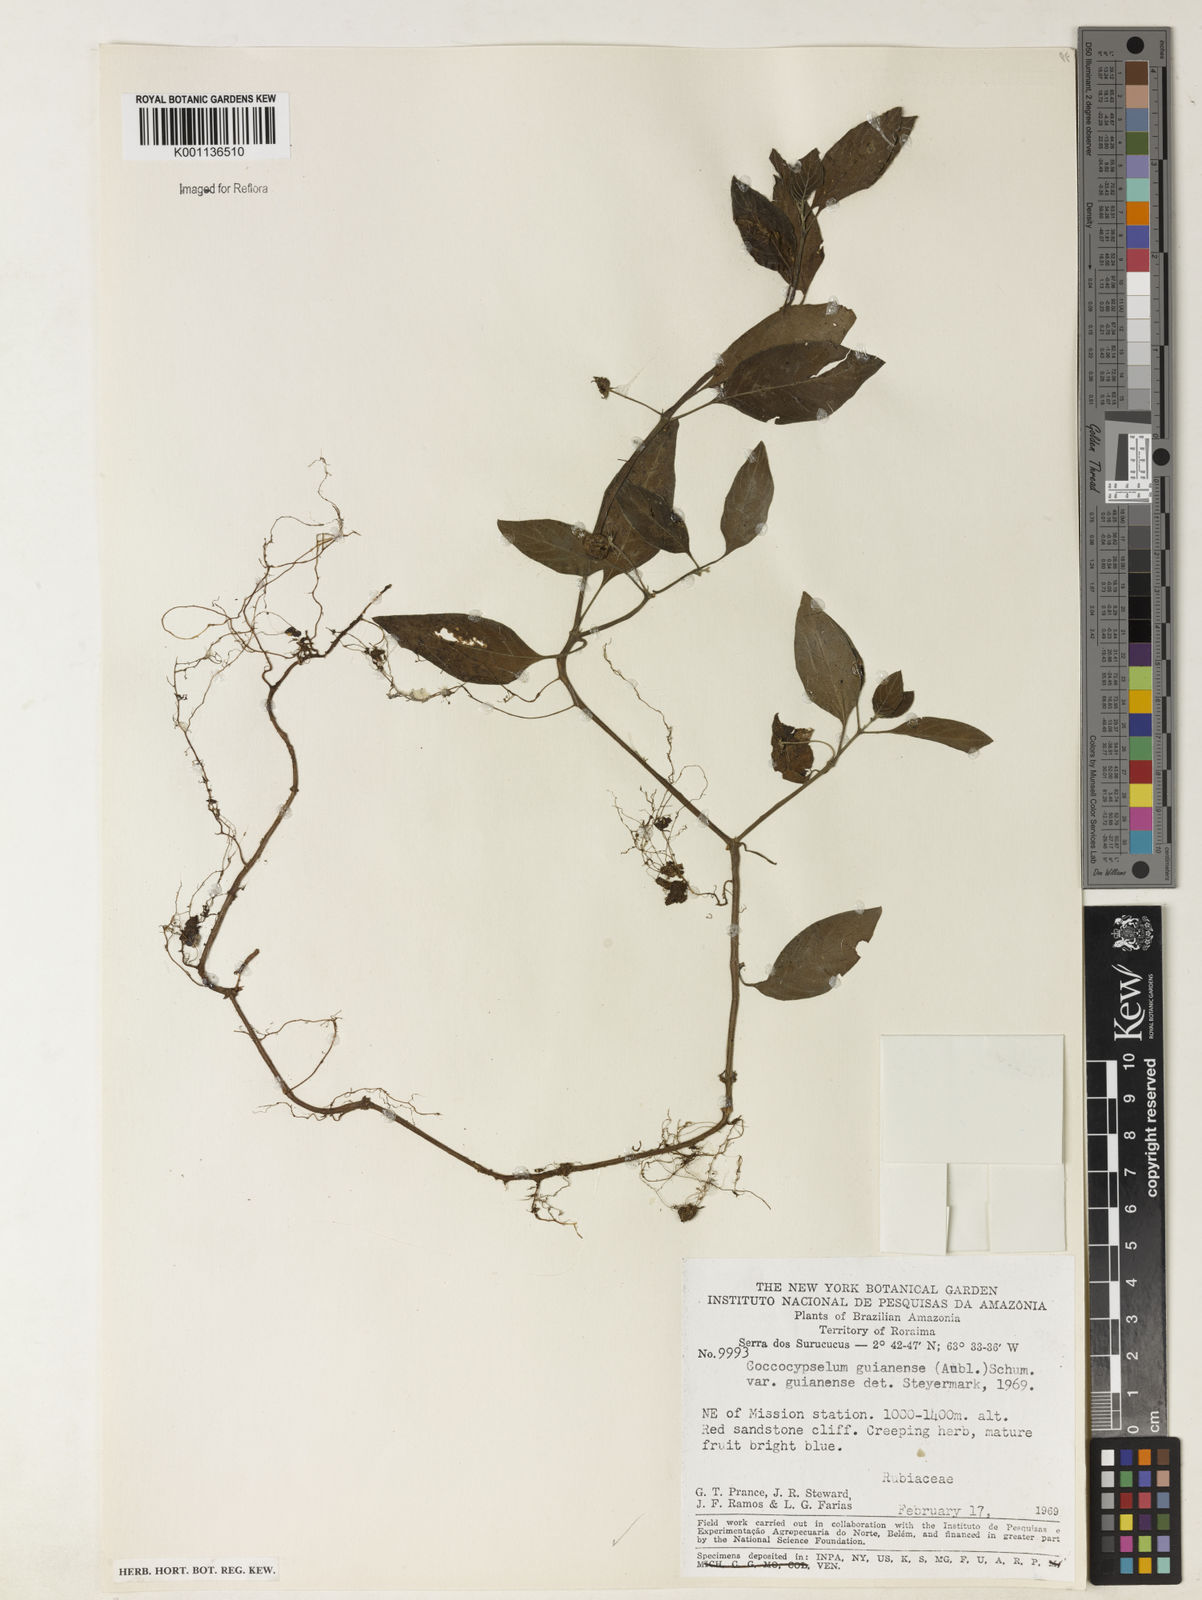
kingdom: Plantae
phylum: Tracheophyta
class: Magnoliopsida
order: Gentianales
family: Rubiaceae
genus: Coccocypselum
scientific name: Coccocypselum guianense
